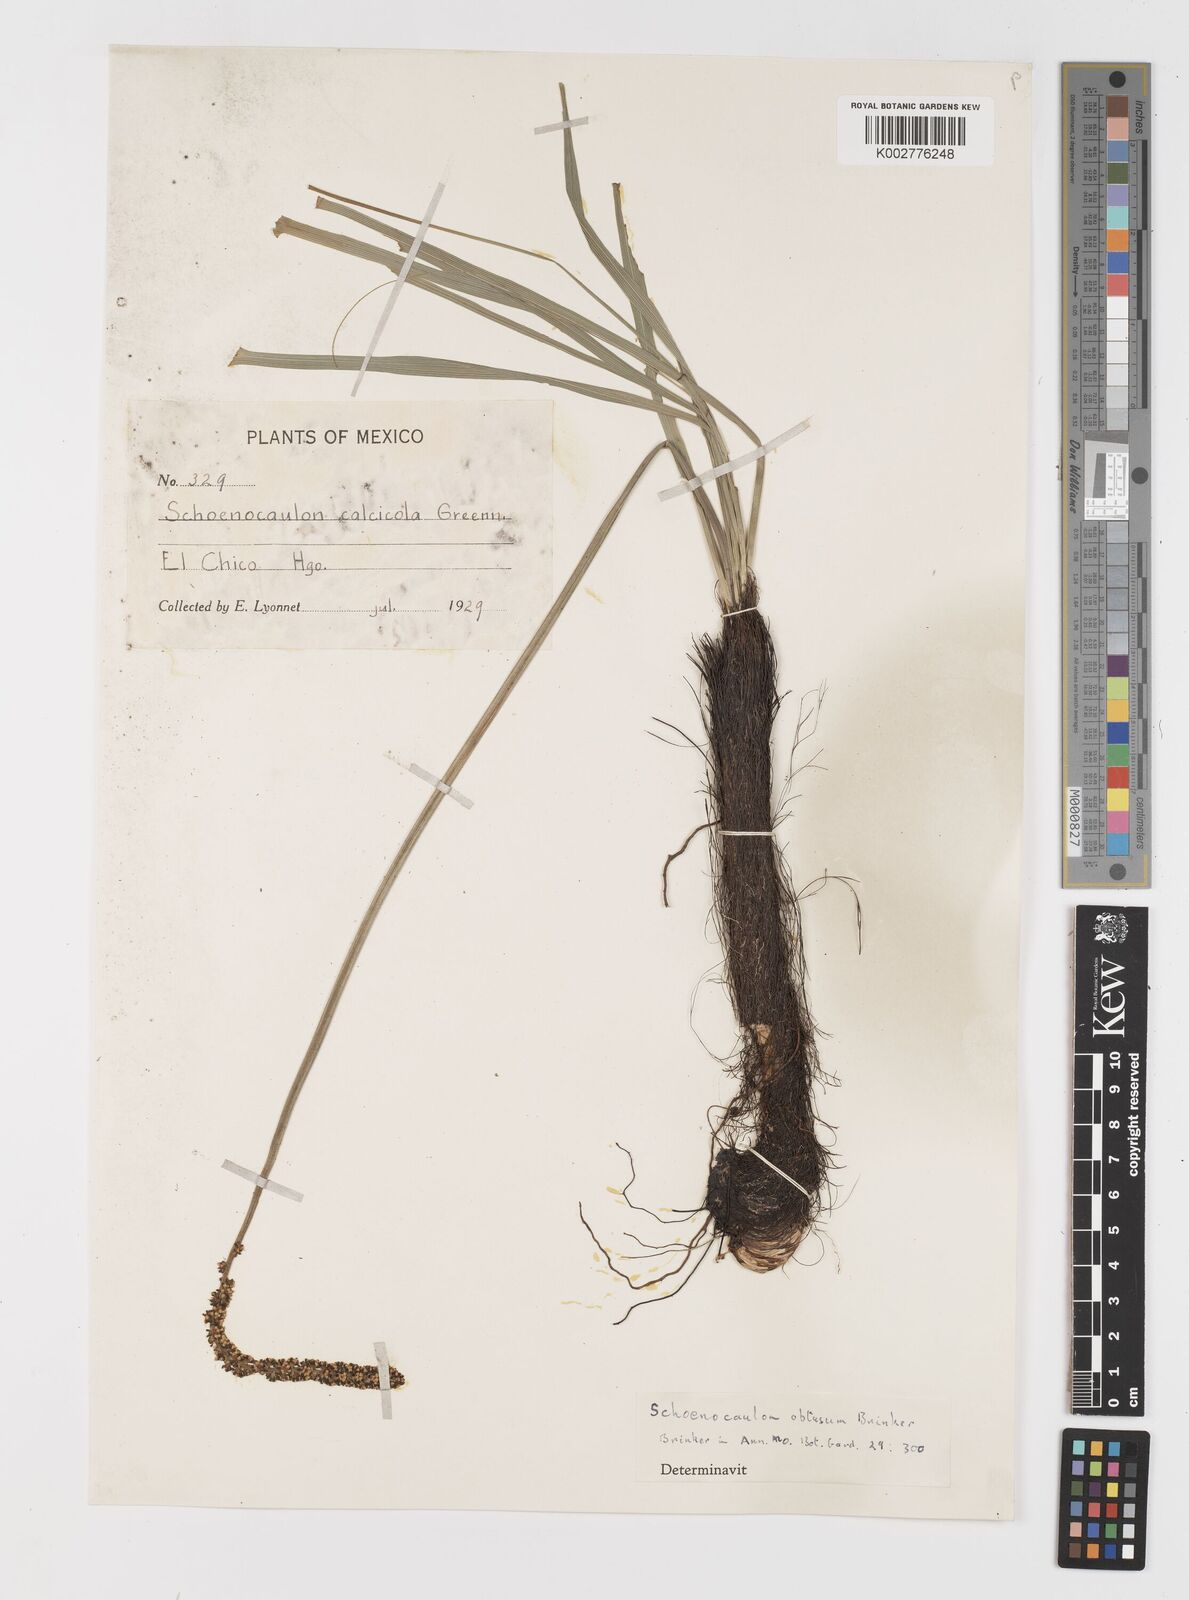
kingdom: Plantae
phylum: Tracheophyta
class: Liliopsida
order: Liliales
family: Melanthiaceae
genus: Schoenocaulon
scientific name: Schoenocaulon obtusum
